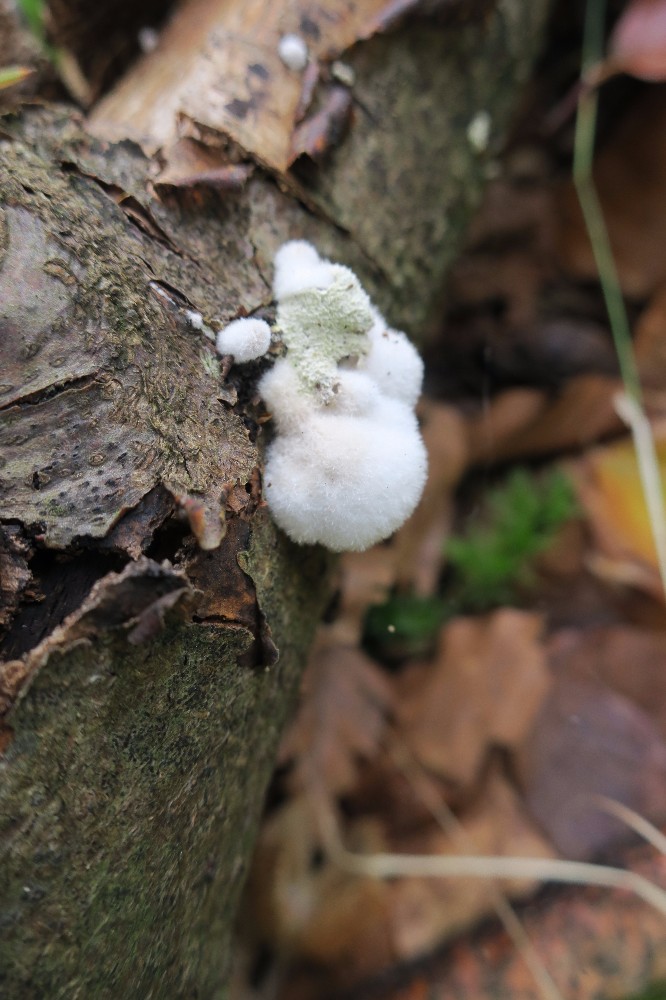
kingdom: Fungi
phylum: Basidiomycota
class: Agaricomycetes
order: Agaricales
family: Schizophyllaceae
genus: Schizophyllum
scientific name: Schizophyllum commune
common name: kløvblad
